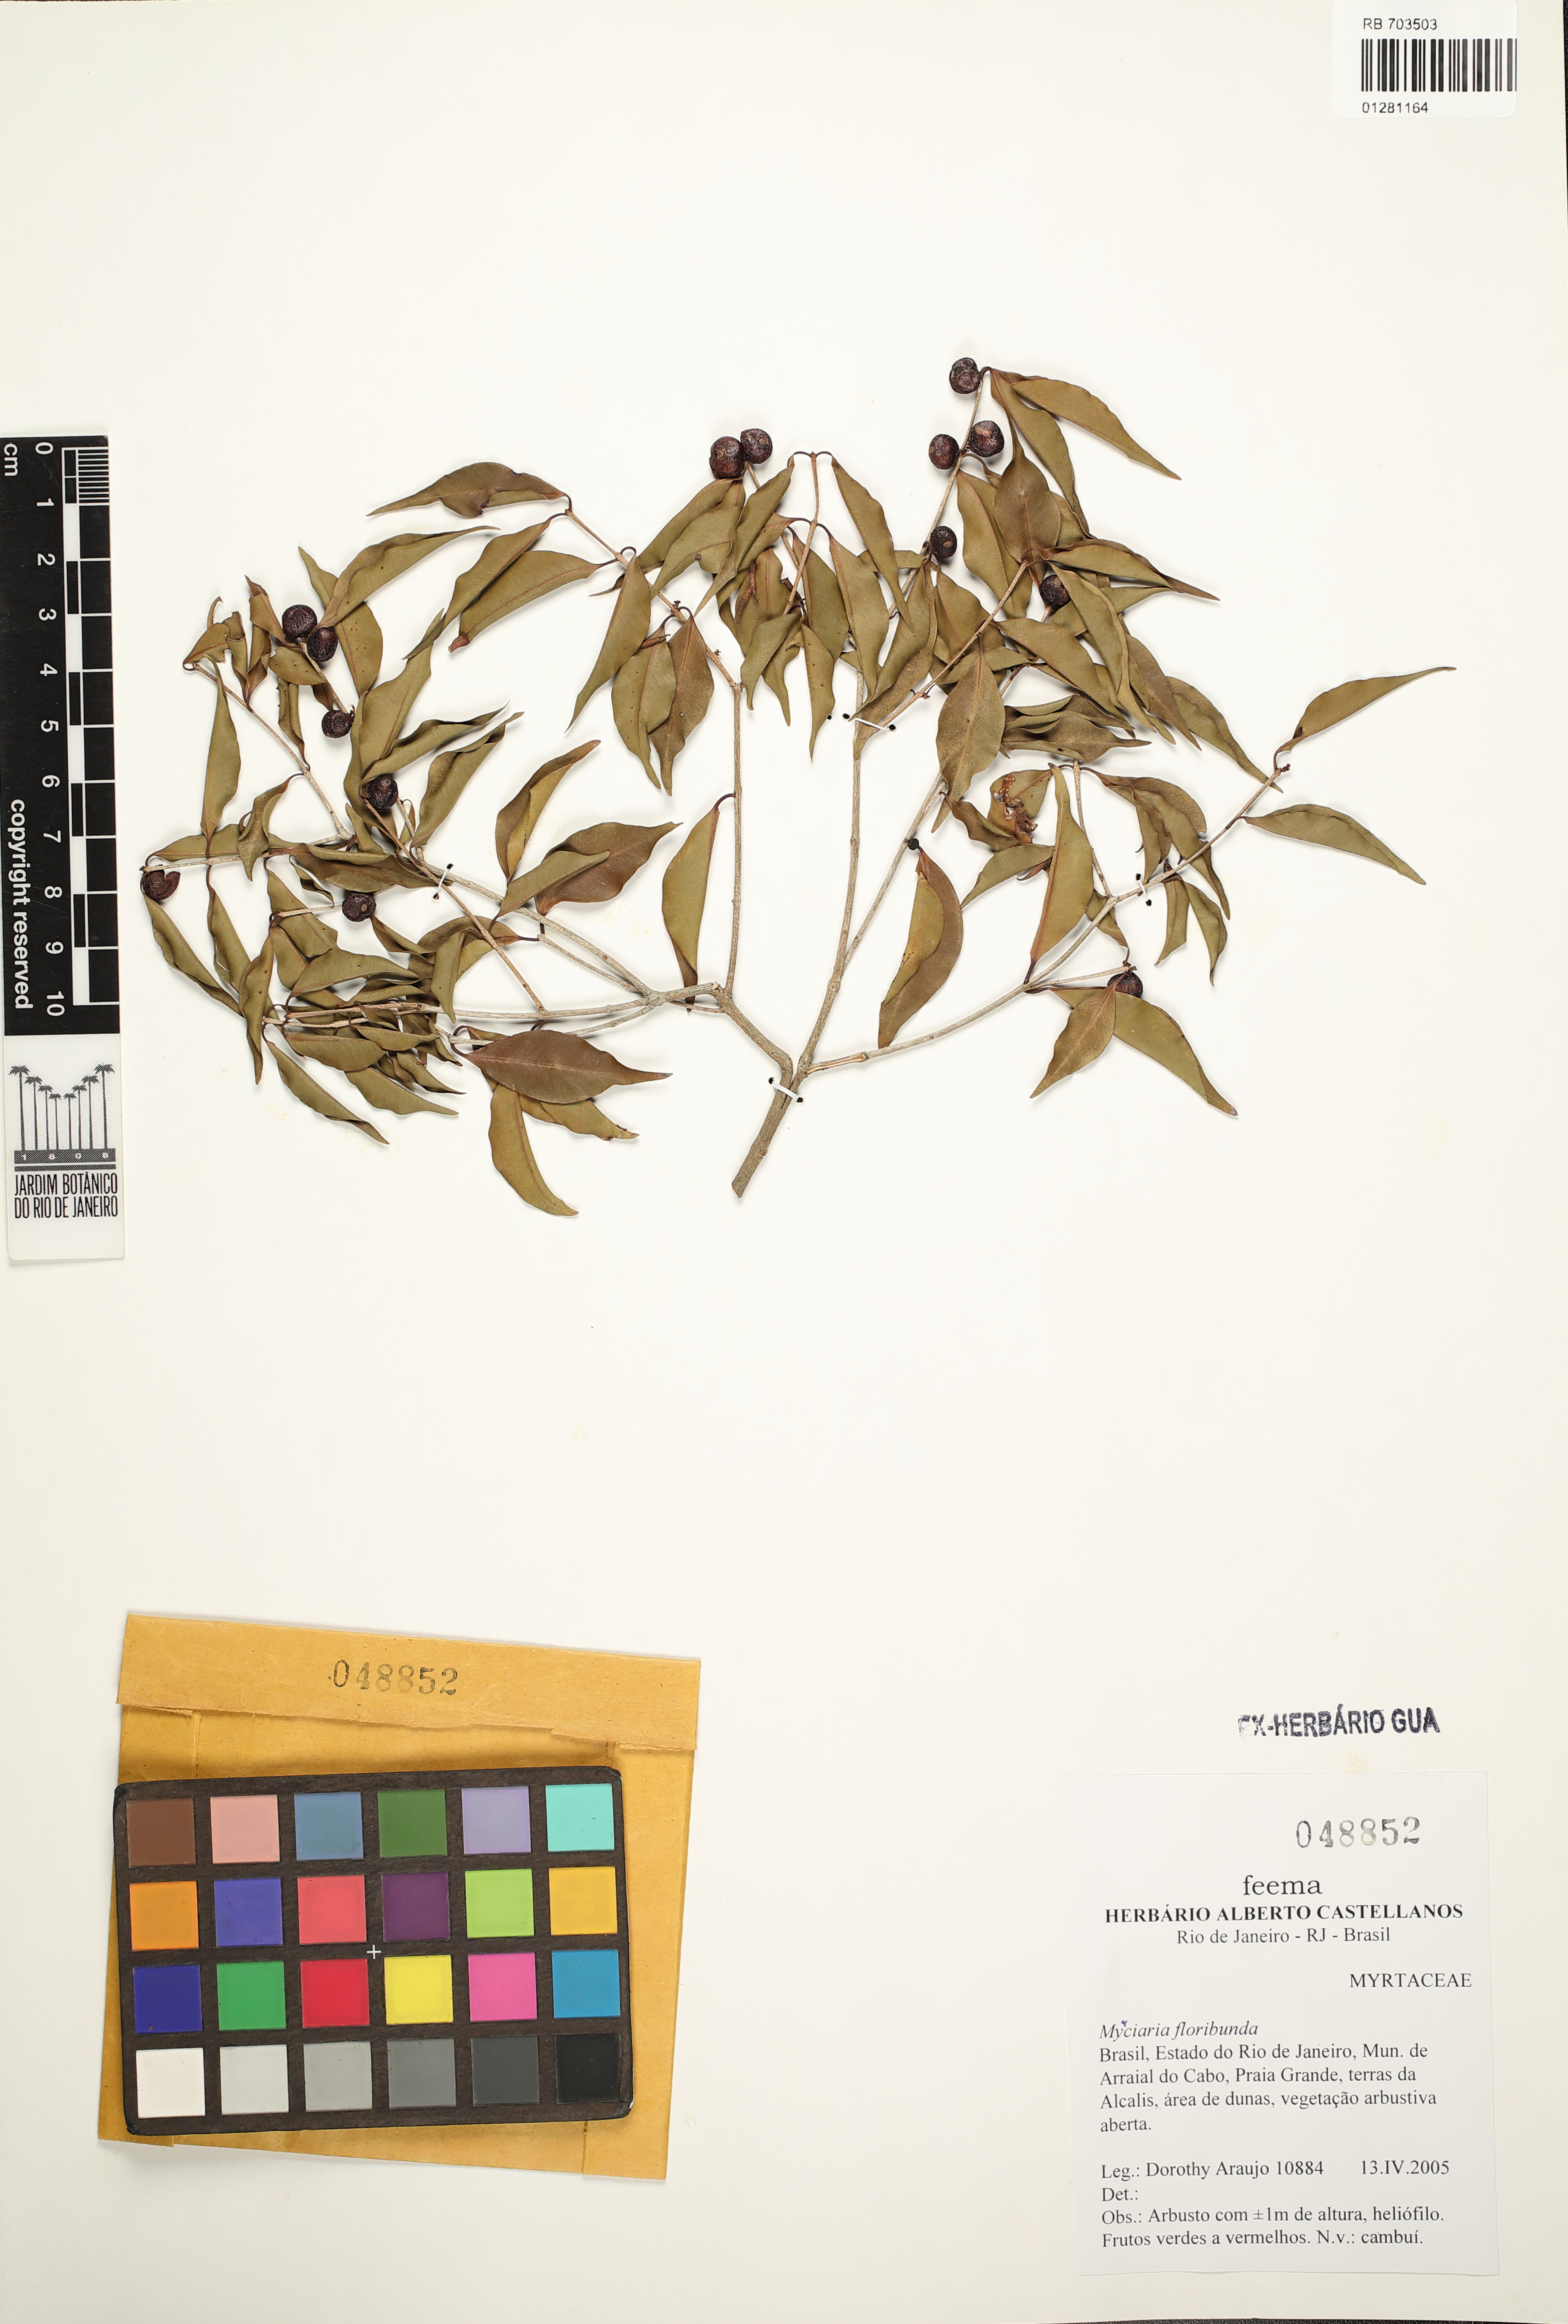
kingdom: Plantae
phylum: Tracheophyta
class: Magnoliopsida
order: Myrtales
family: Myrtaceae
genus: Myrciaria
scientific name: Myrciaria floribunda
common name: Guavaberry
